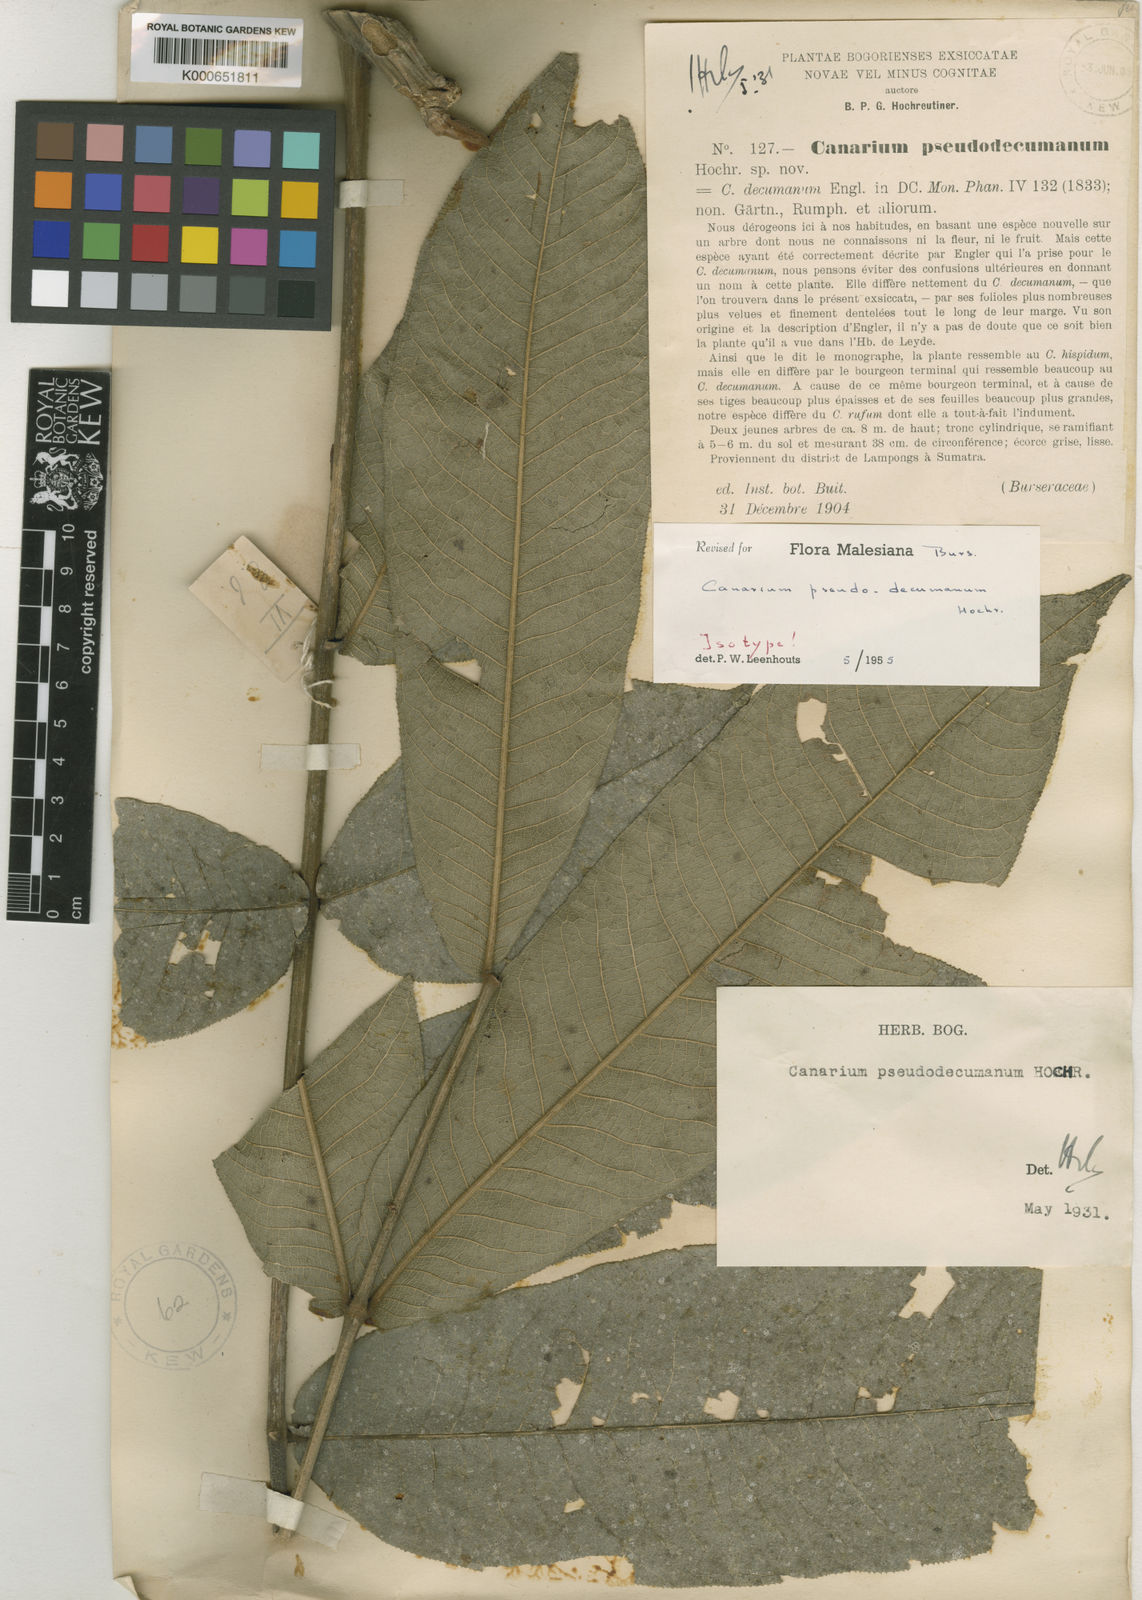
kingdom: Plantae
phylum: Tracheophyta
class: Magnoliopsida
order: Sapindales
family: Burseraceae
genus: Canarium
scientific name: Canarium pseudodecumanum
